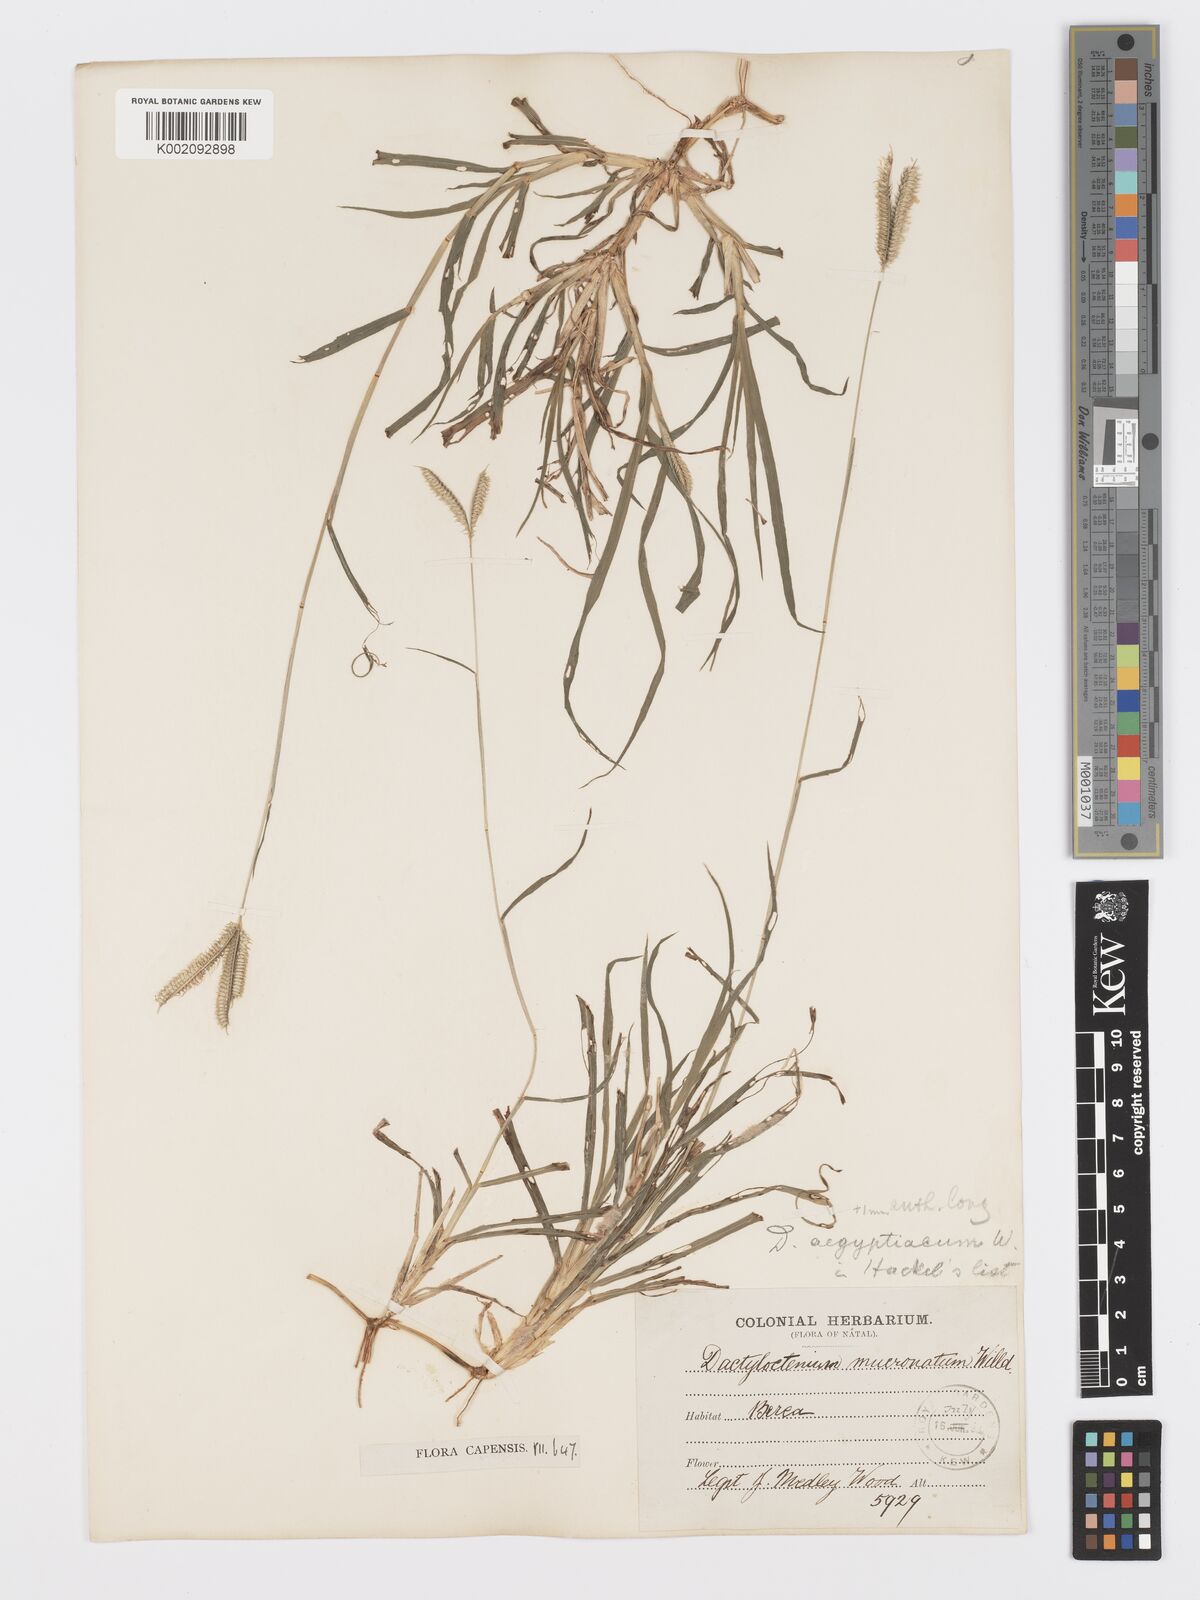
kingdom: Plantae
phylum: Tracheophyta
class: Liliopsida
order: Poales
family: Poaceae
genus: Dactyloctenium
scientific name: Dactyloctenium australe
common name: Durban grass
